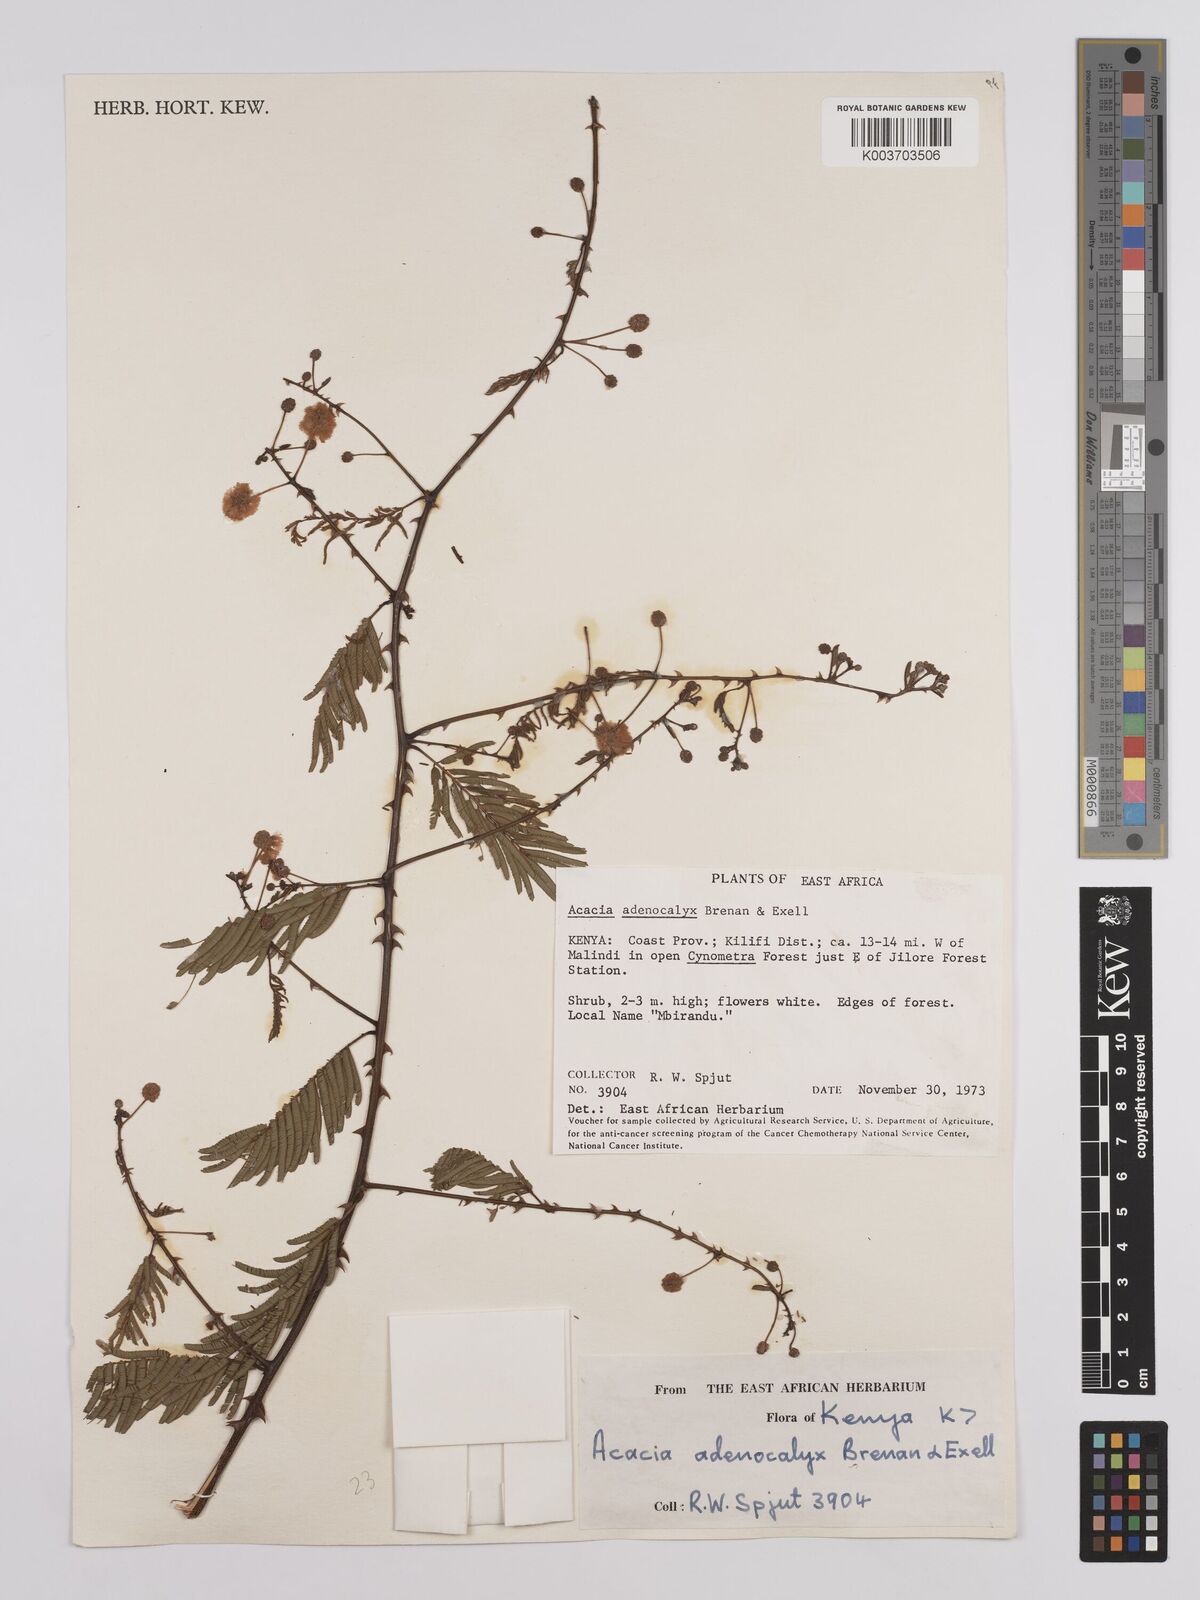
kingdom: Plantae
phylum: Tracheophyta
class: Magnoliopsida
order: Fabales
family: Fabaceae
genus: Senegalia
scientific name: Senegalia adenocalyx
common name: Pfurura
